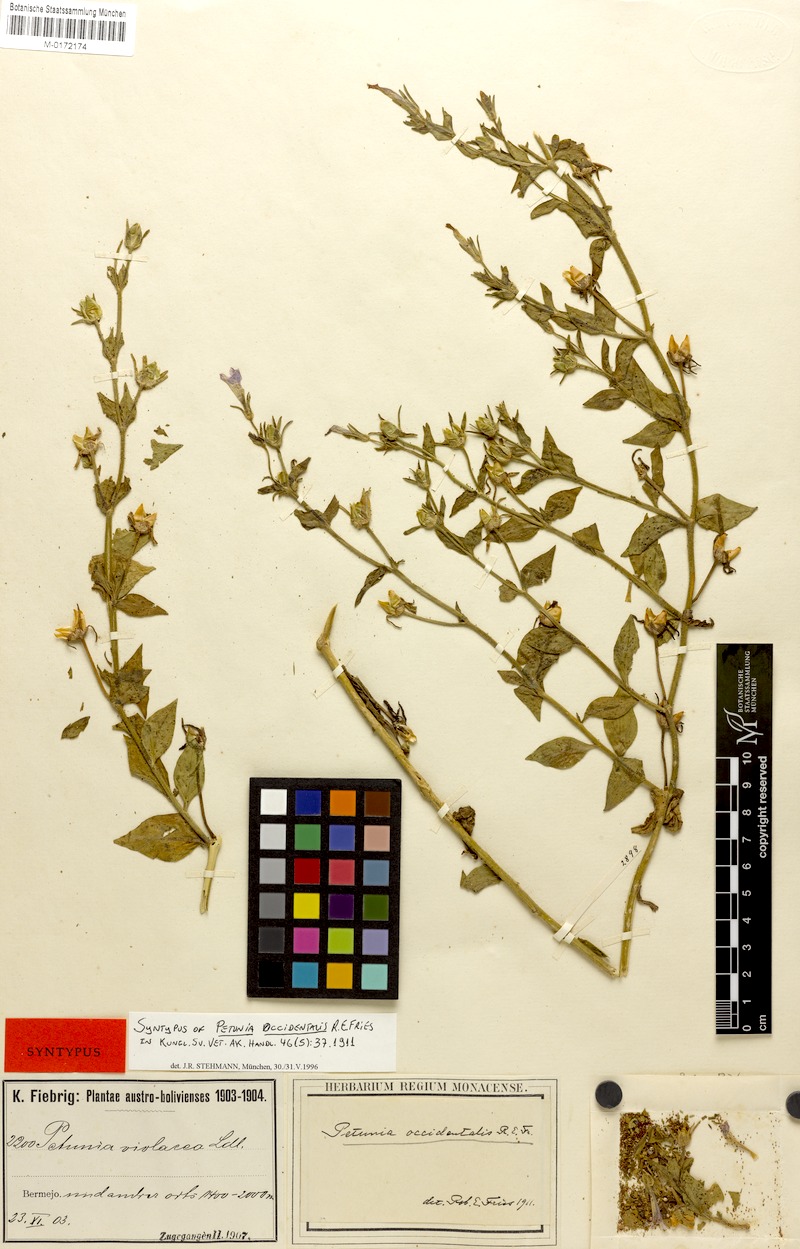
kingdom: Plantae
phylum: Tracheophyta
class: Magnoliopsida
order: Solanales
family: Solanaceae
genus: Petunia
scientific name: Petunia occidentalis
